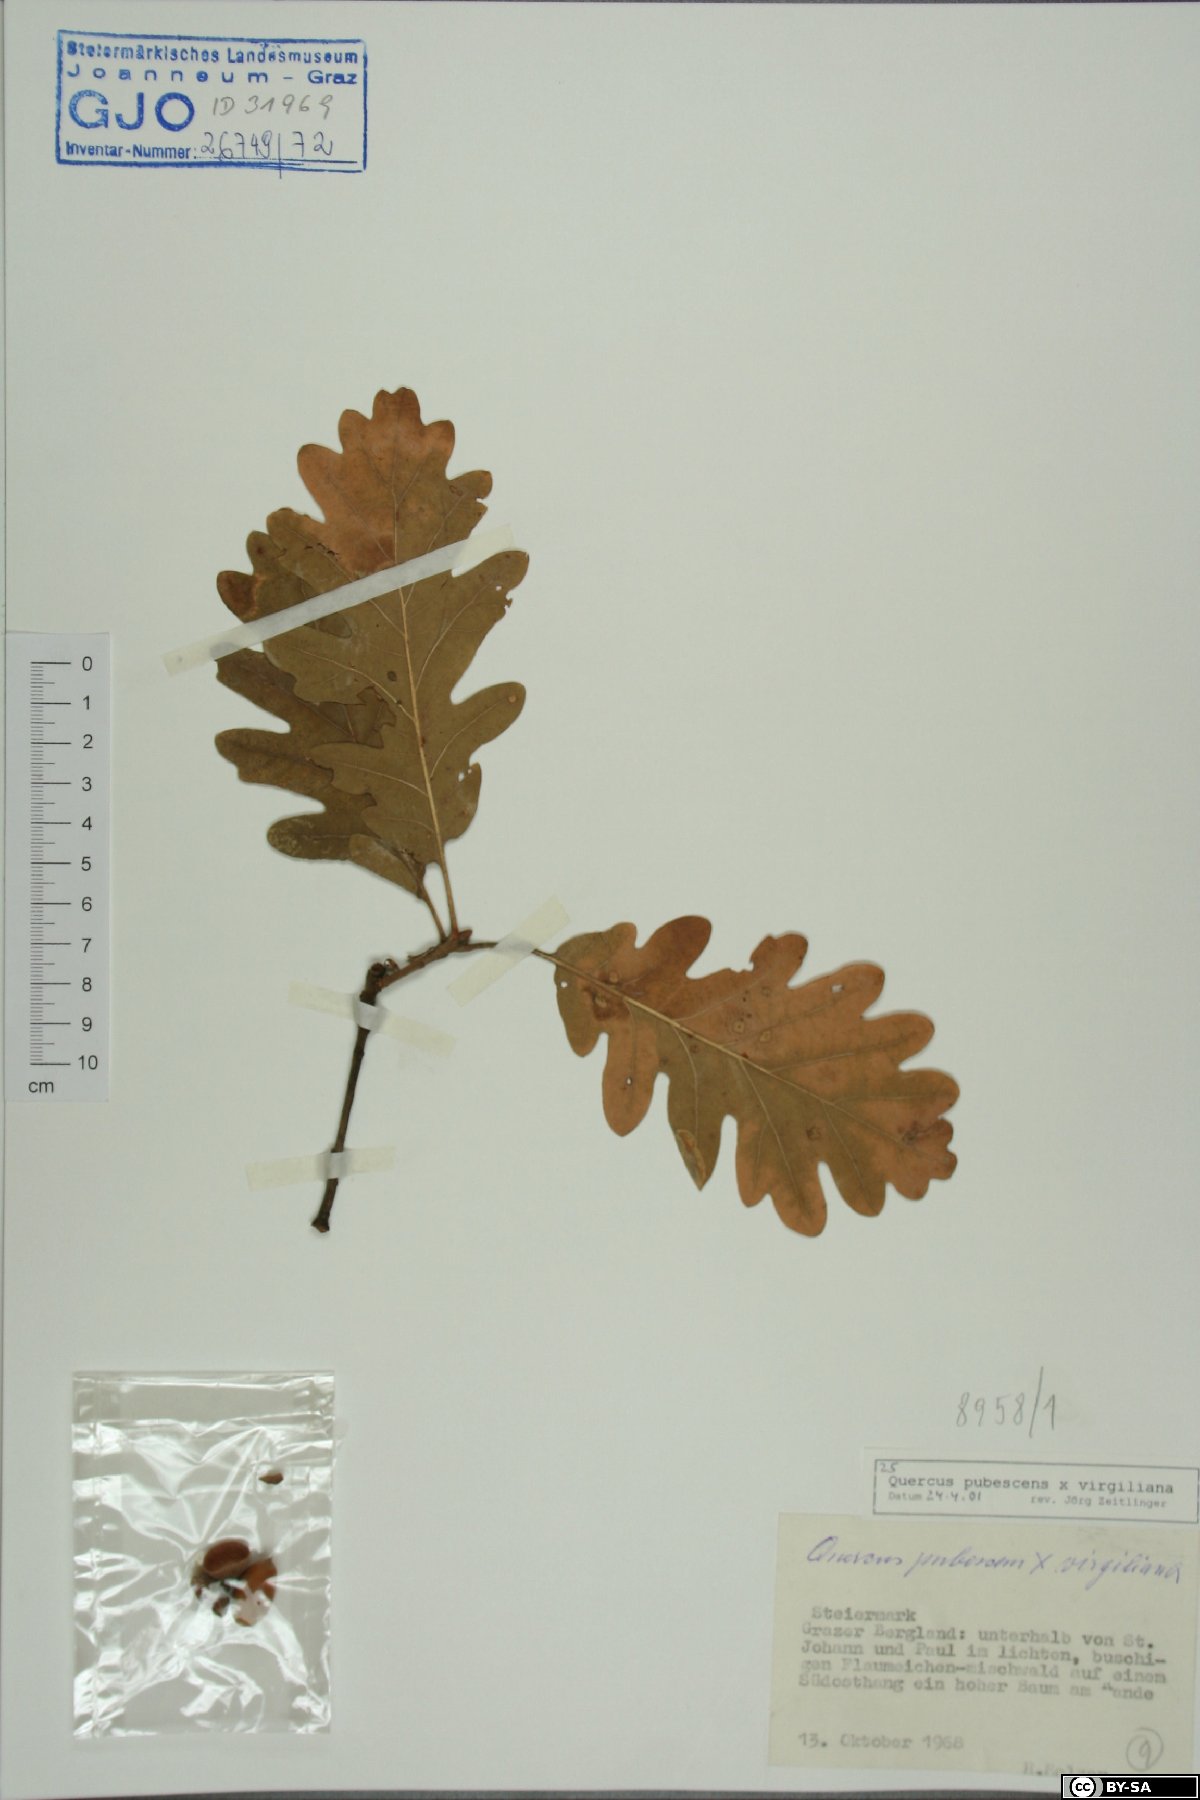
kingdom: Plantae
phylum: Tracheophyta
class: Magnoliopsida
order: Fagales
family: Fagaceae
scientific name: Fagaceae
